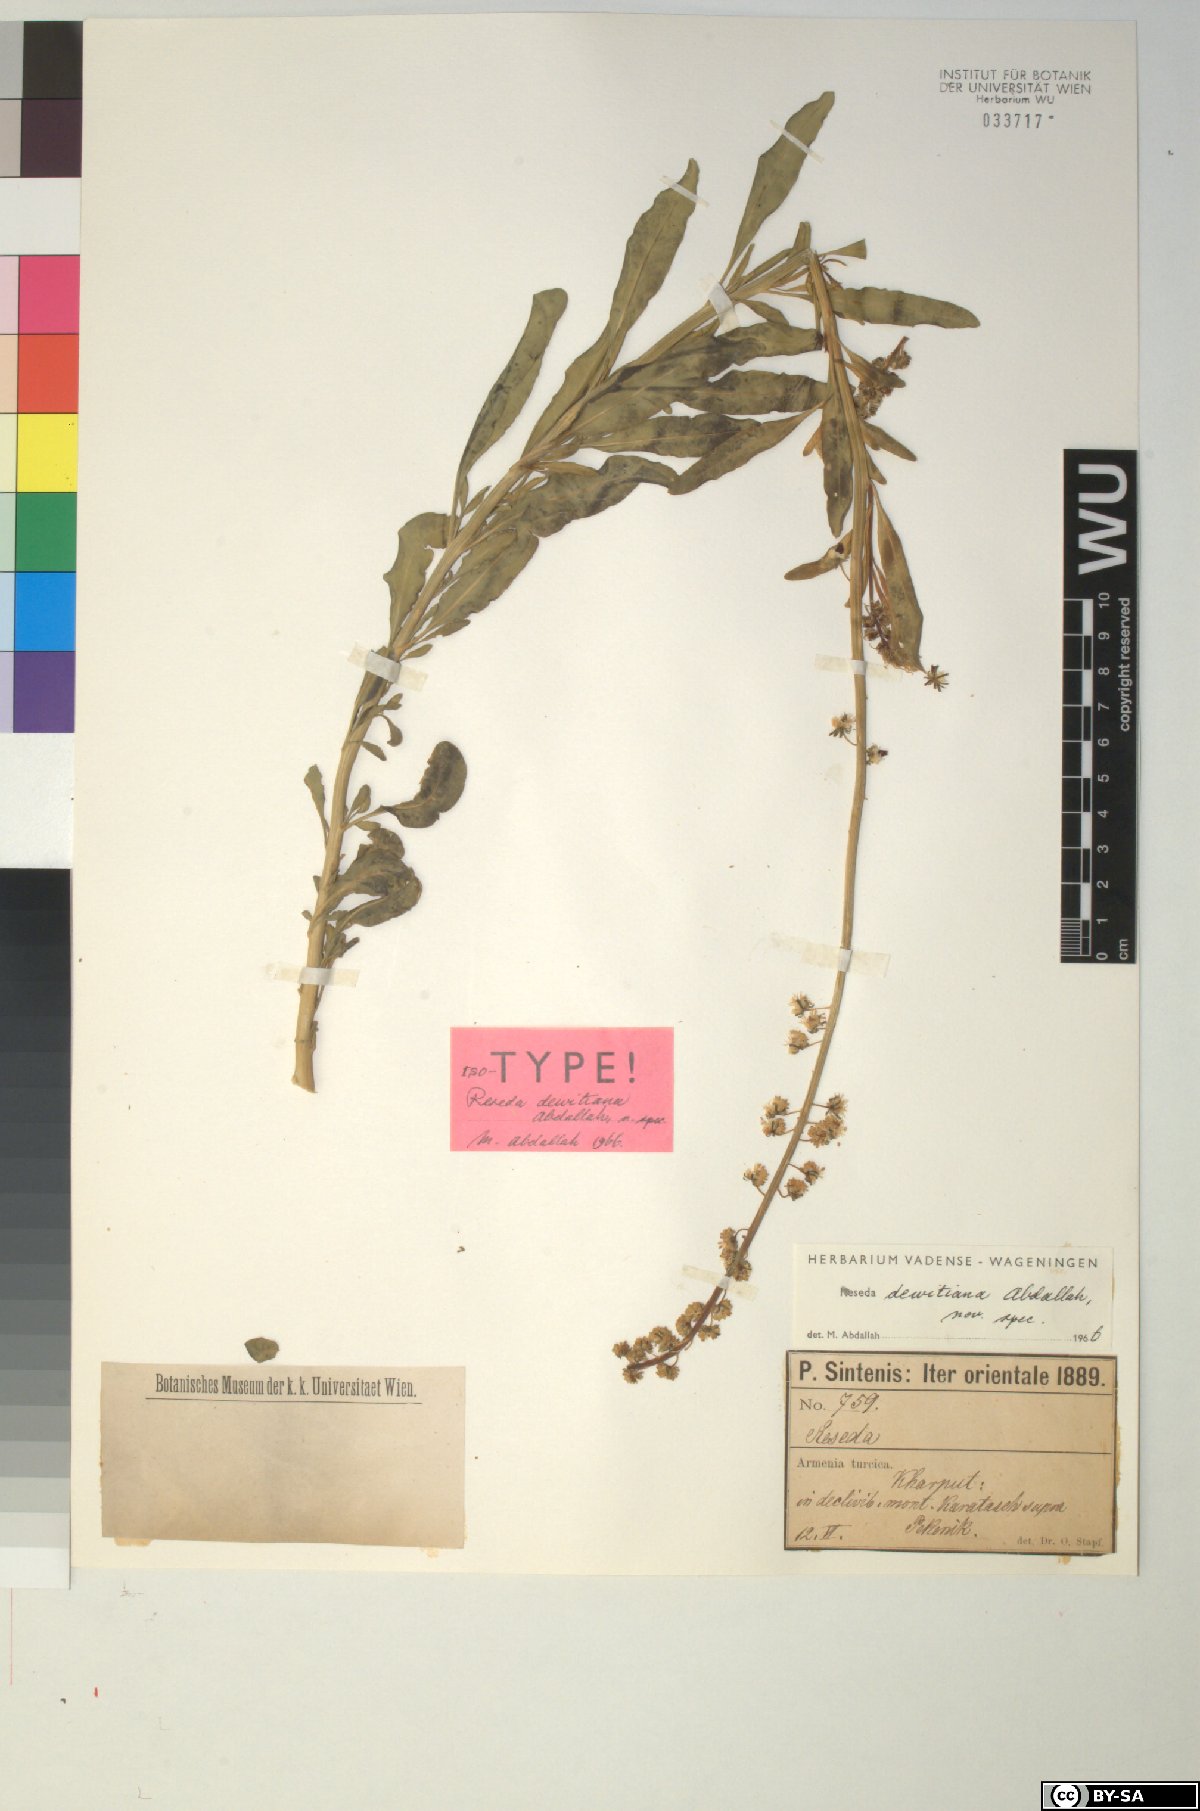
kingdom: Plantae
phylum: Tracheophyta
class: Magnoliopsida
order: Brassicales
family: Resedaceae
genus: Reseda
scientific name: Reseda
